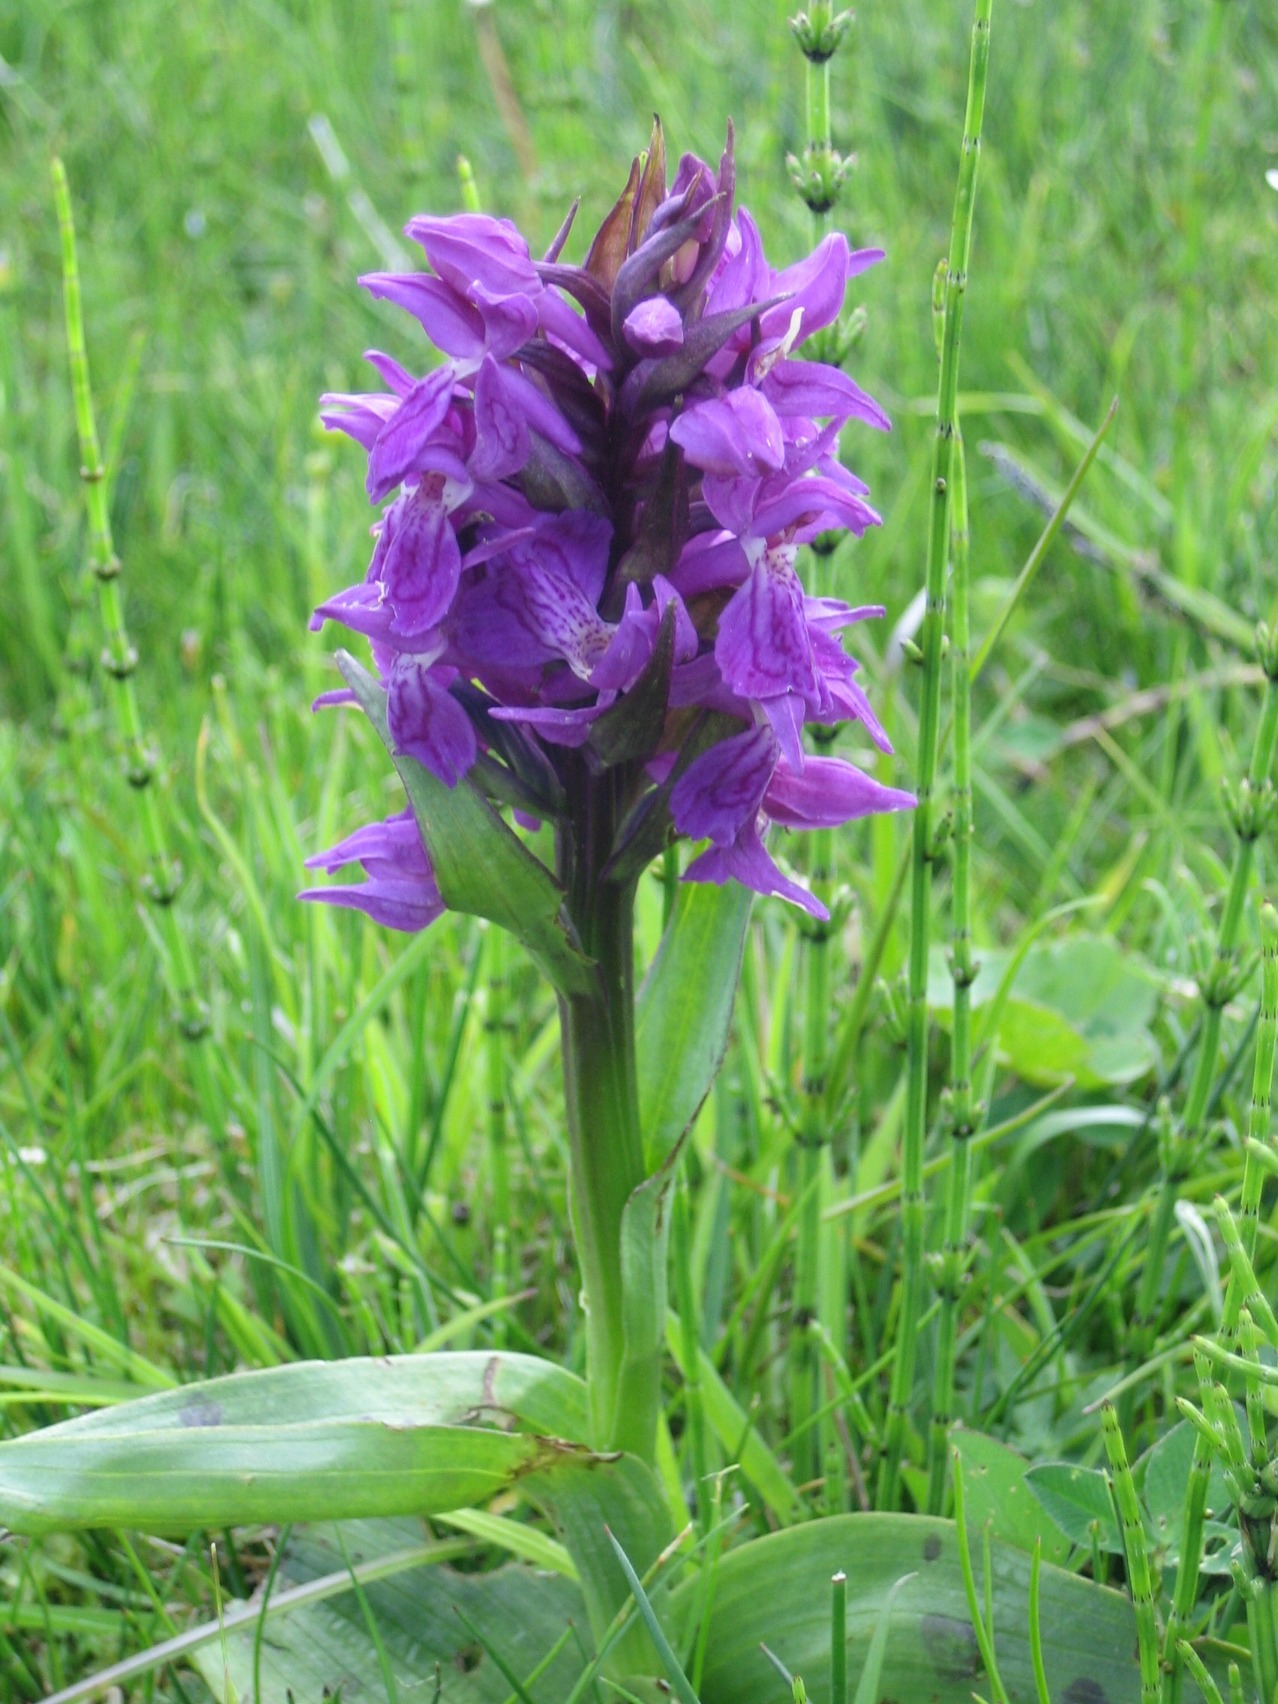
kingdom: Plantae
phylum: Tracheophyta
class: Liliopsida
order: Asparagales
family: Orchidaceae
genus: Dactylorhiza
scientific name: Dactylorhiza majalis
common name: Maj-gøgeurt
